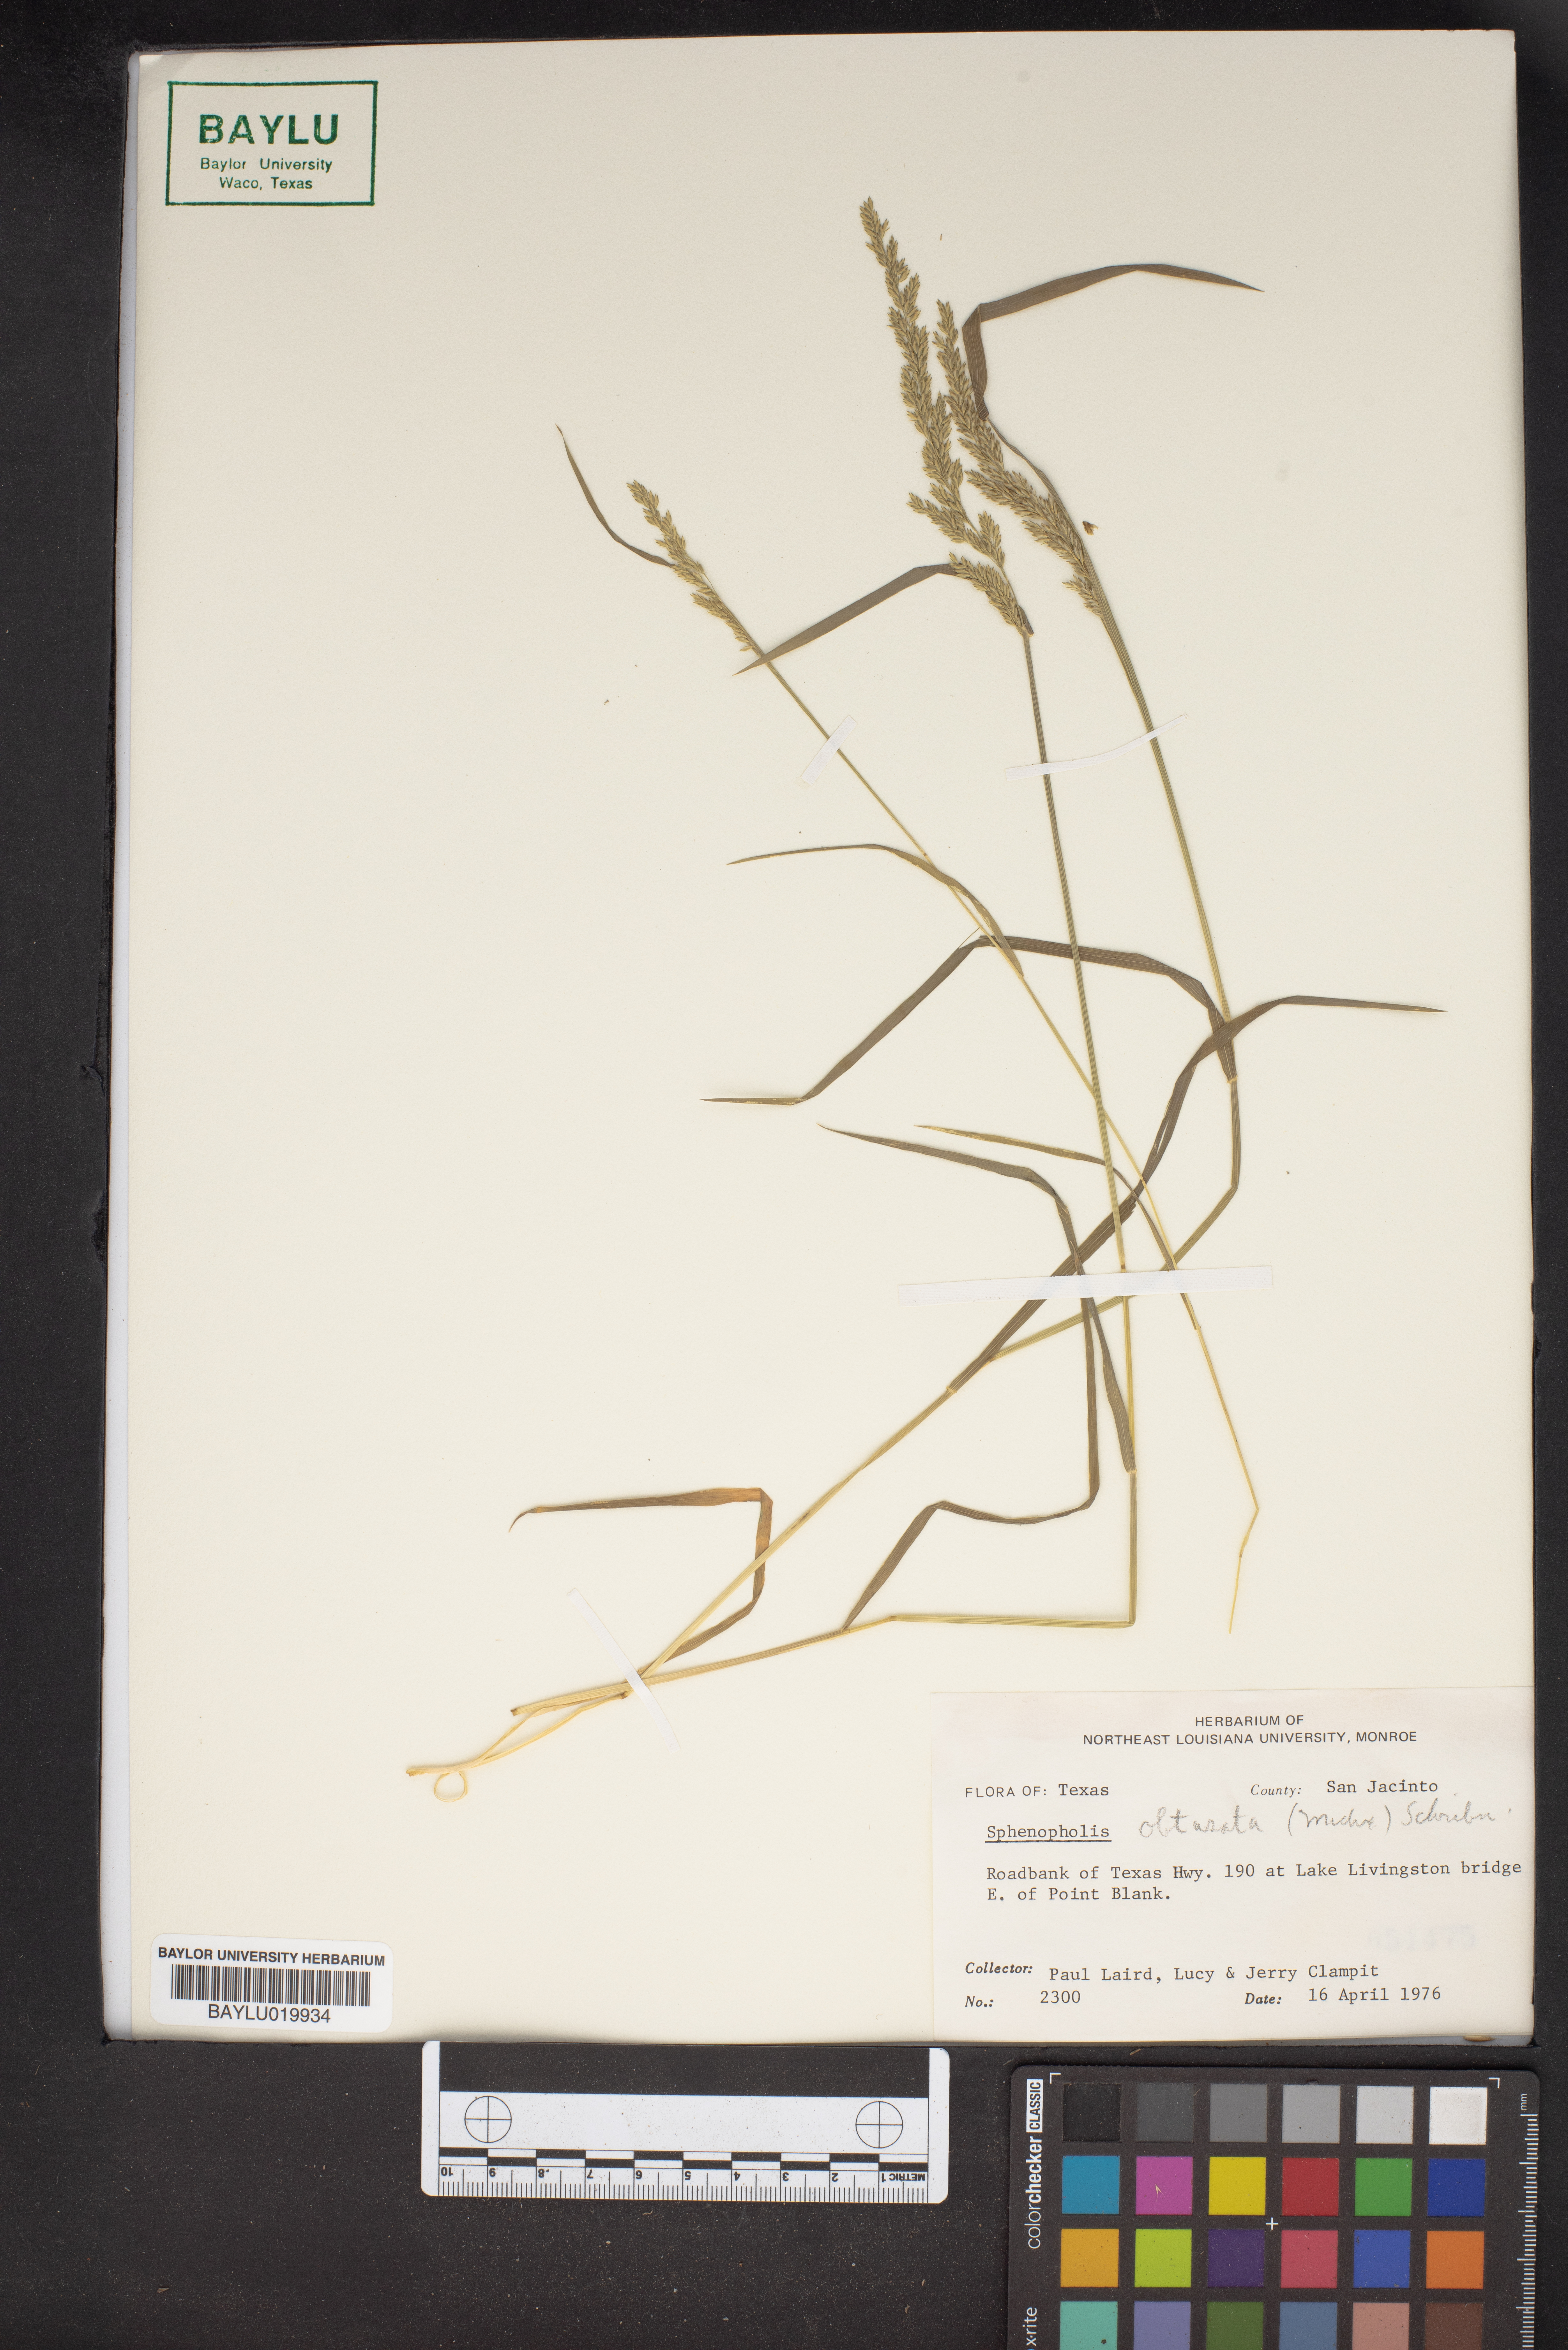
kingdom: Plantae
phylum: Tracheophyta
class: Liliopsida
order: Poales
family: Poaceae
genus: Sphenopholis
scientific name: Sphenopholis obtusata
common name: Prairie grass
